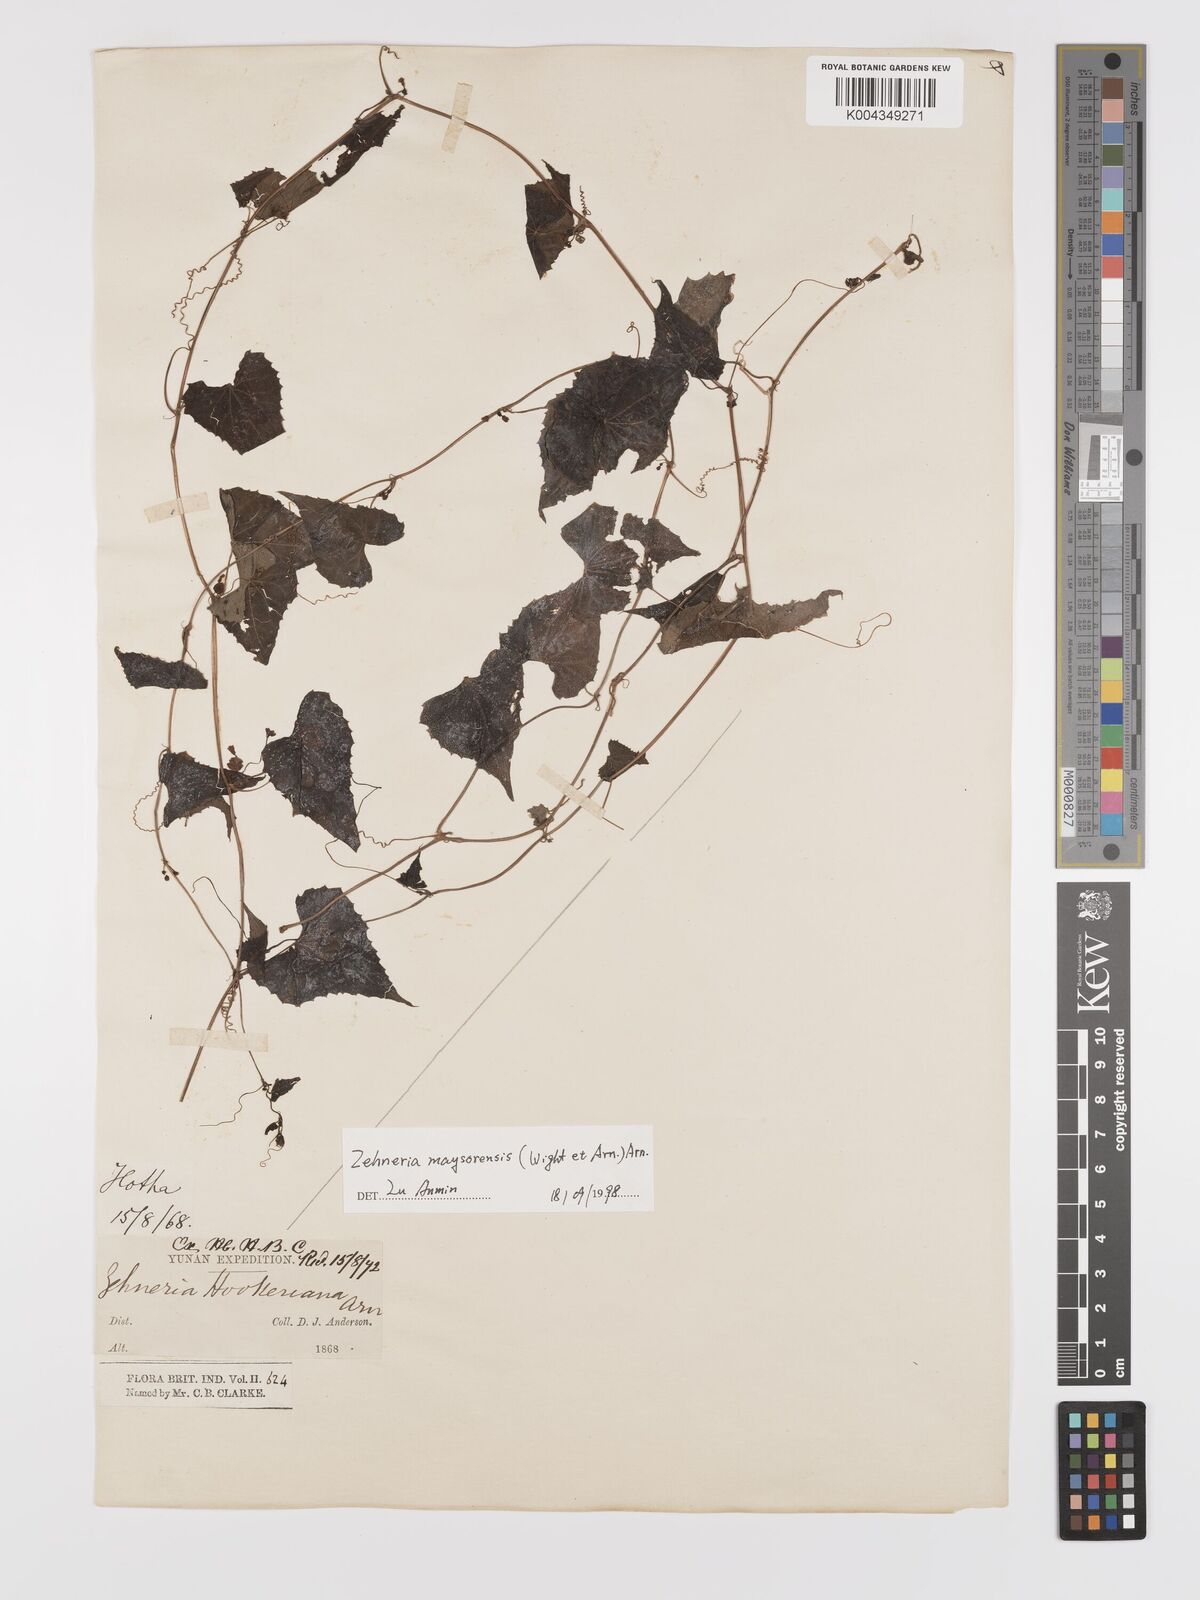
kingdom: Plantae
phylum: Tracheophyta
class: Magnoliopsida
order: Cucurbitales
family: Cucurbitaceae
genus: Zehneria
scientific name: Zehneria maysorensis
